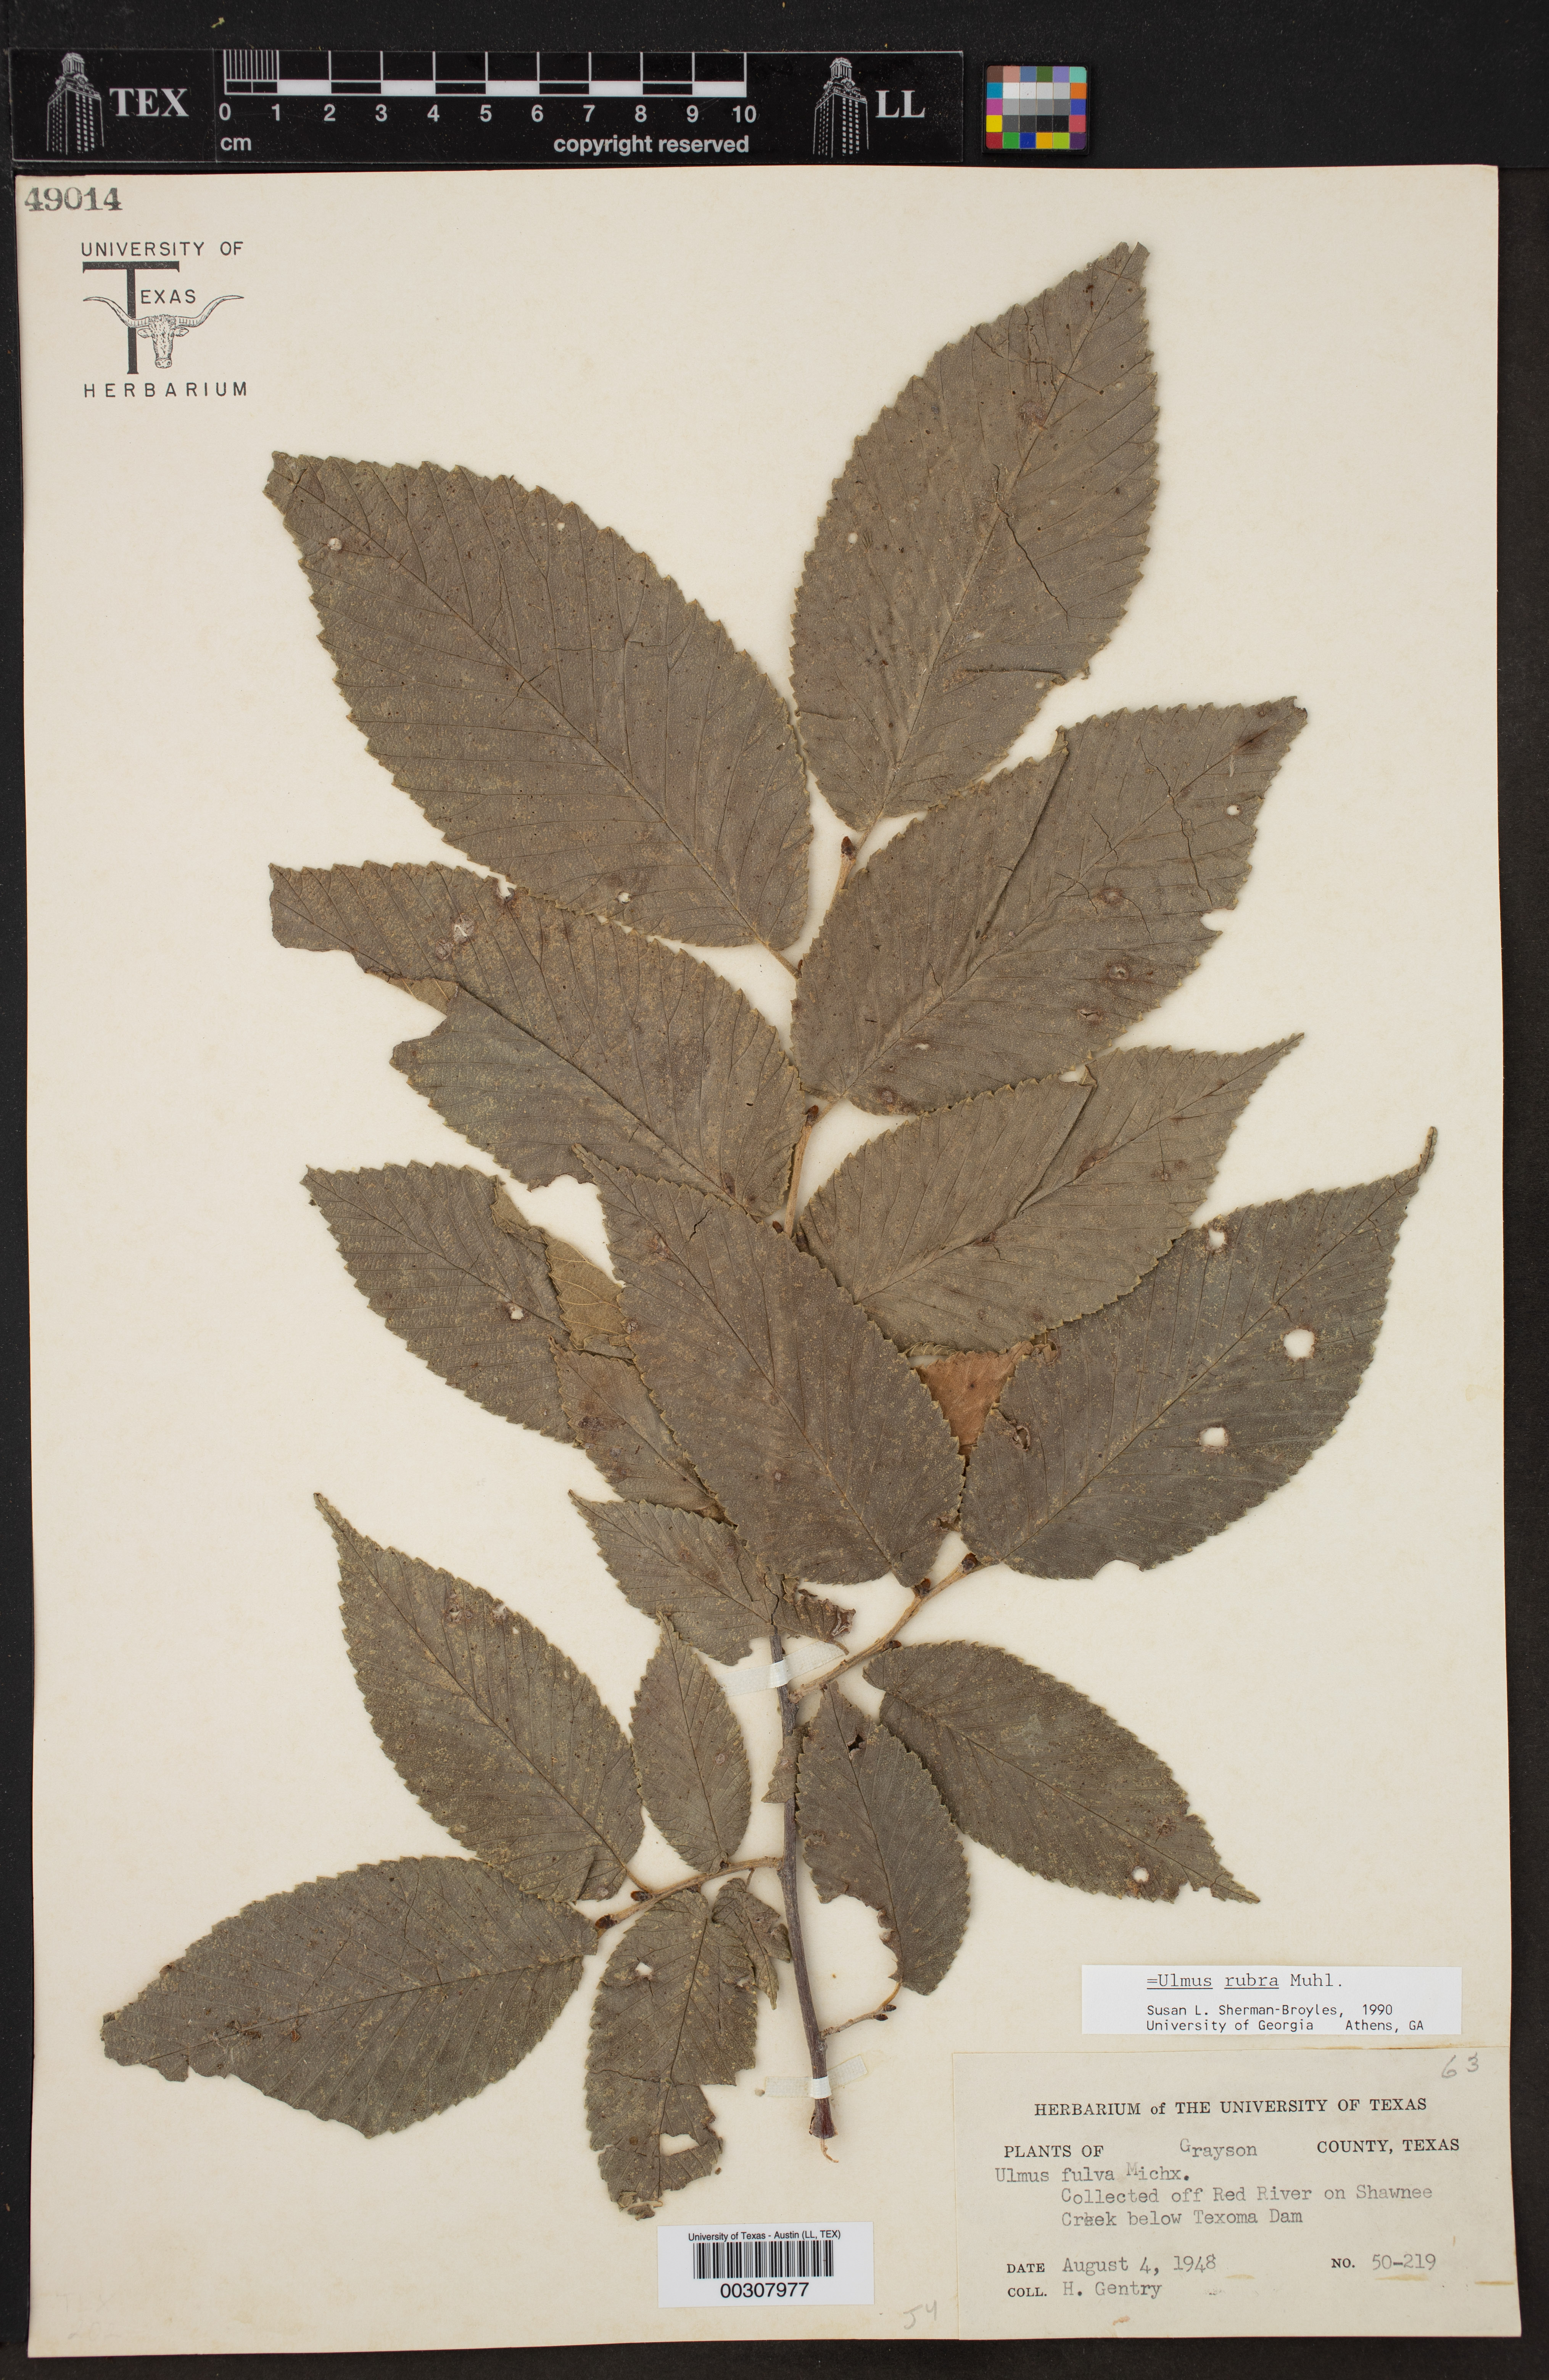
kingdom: Plantae
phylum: Tracheophyta
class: Magnoliopsida
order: Rosales
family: Ulmaceae
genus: Ulmus
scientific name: Ulmus rubra
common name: Slippery elm
